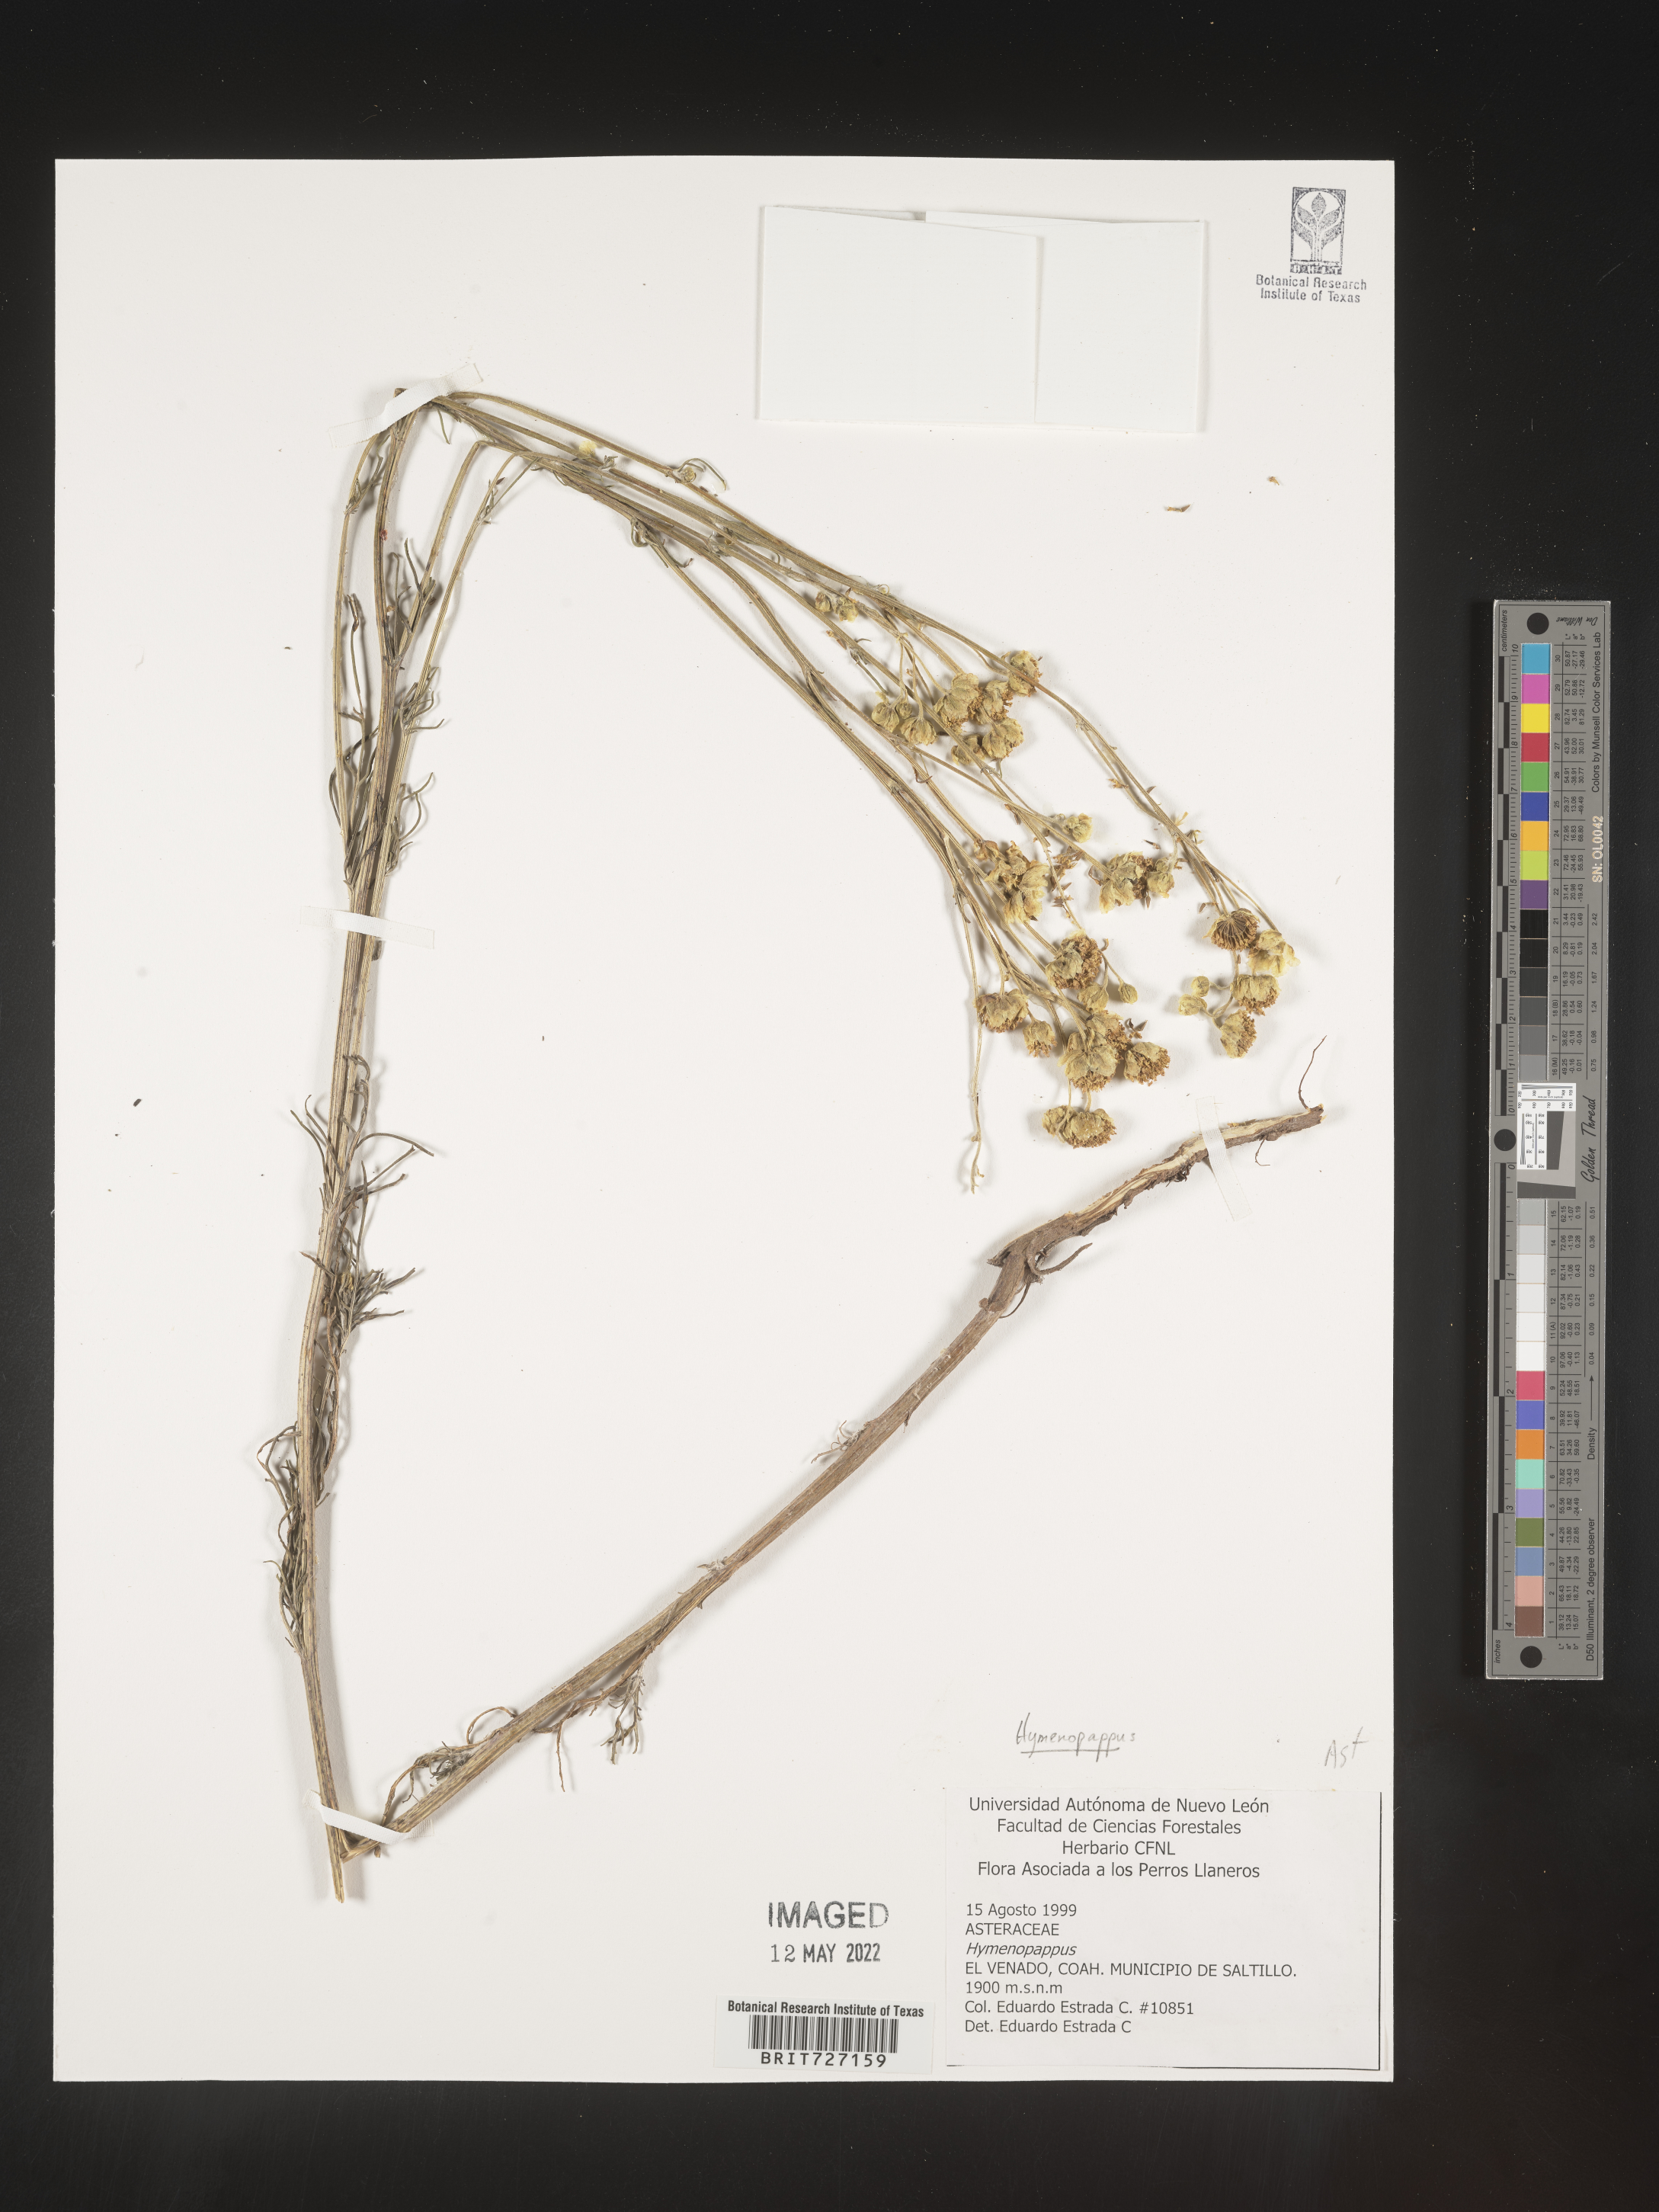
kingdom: Plantae
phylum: Tracheophyta
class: Magnoliopsida
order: Asterales
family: Asteraceae
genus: Hymenopappus
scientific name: Hymenopappus
